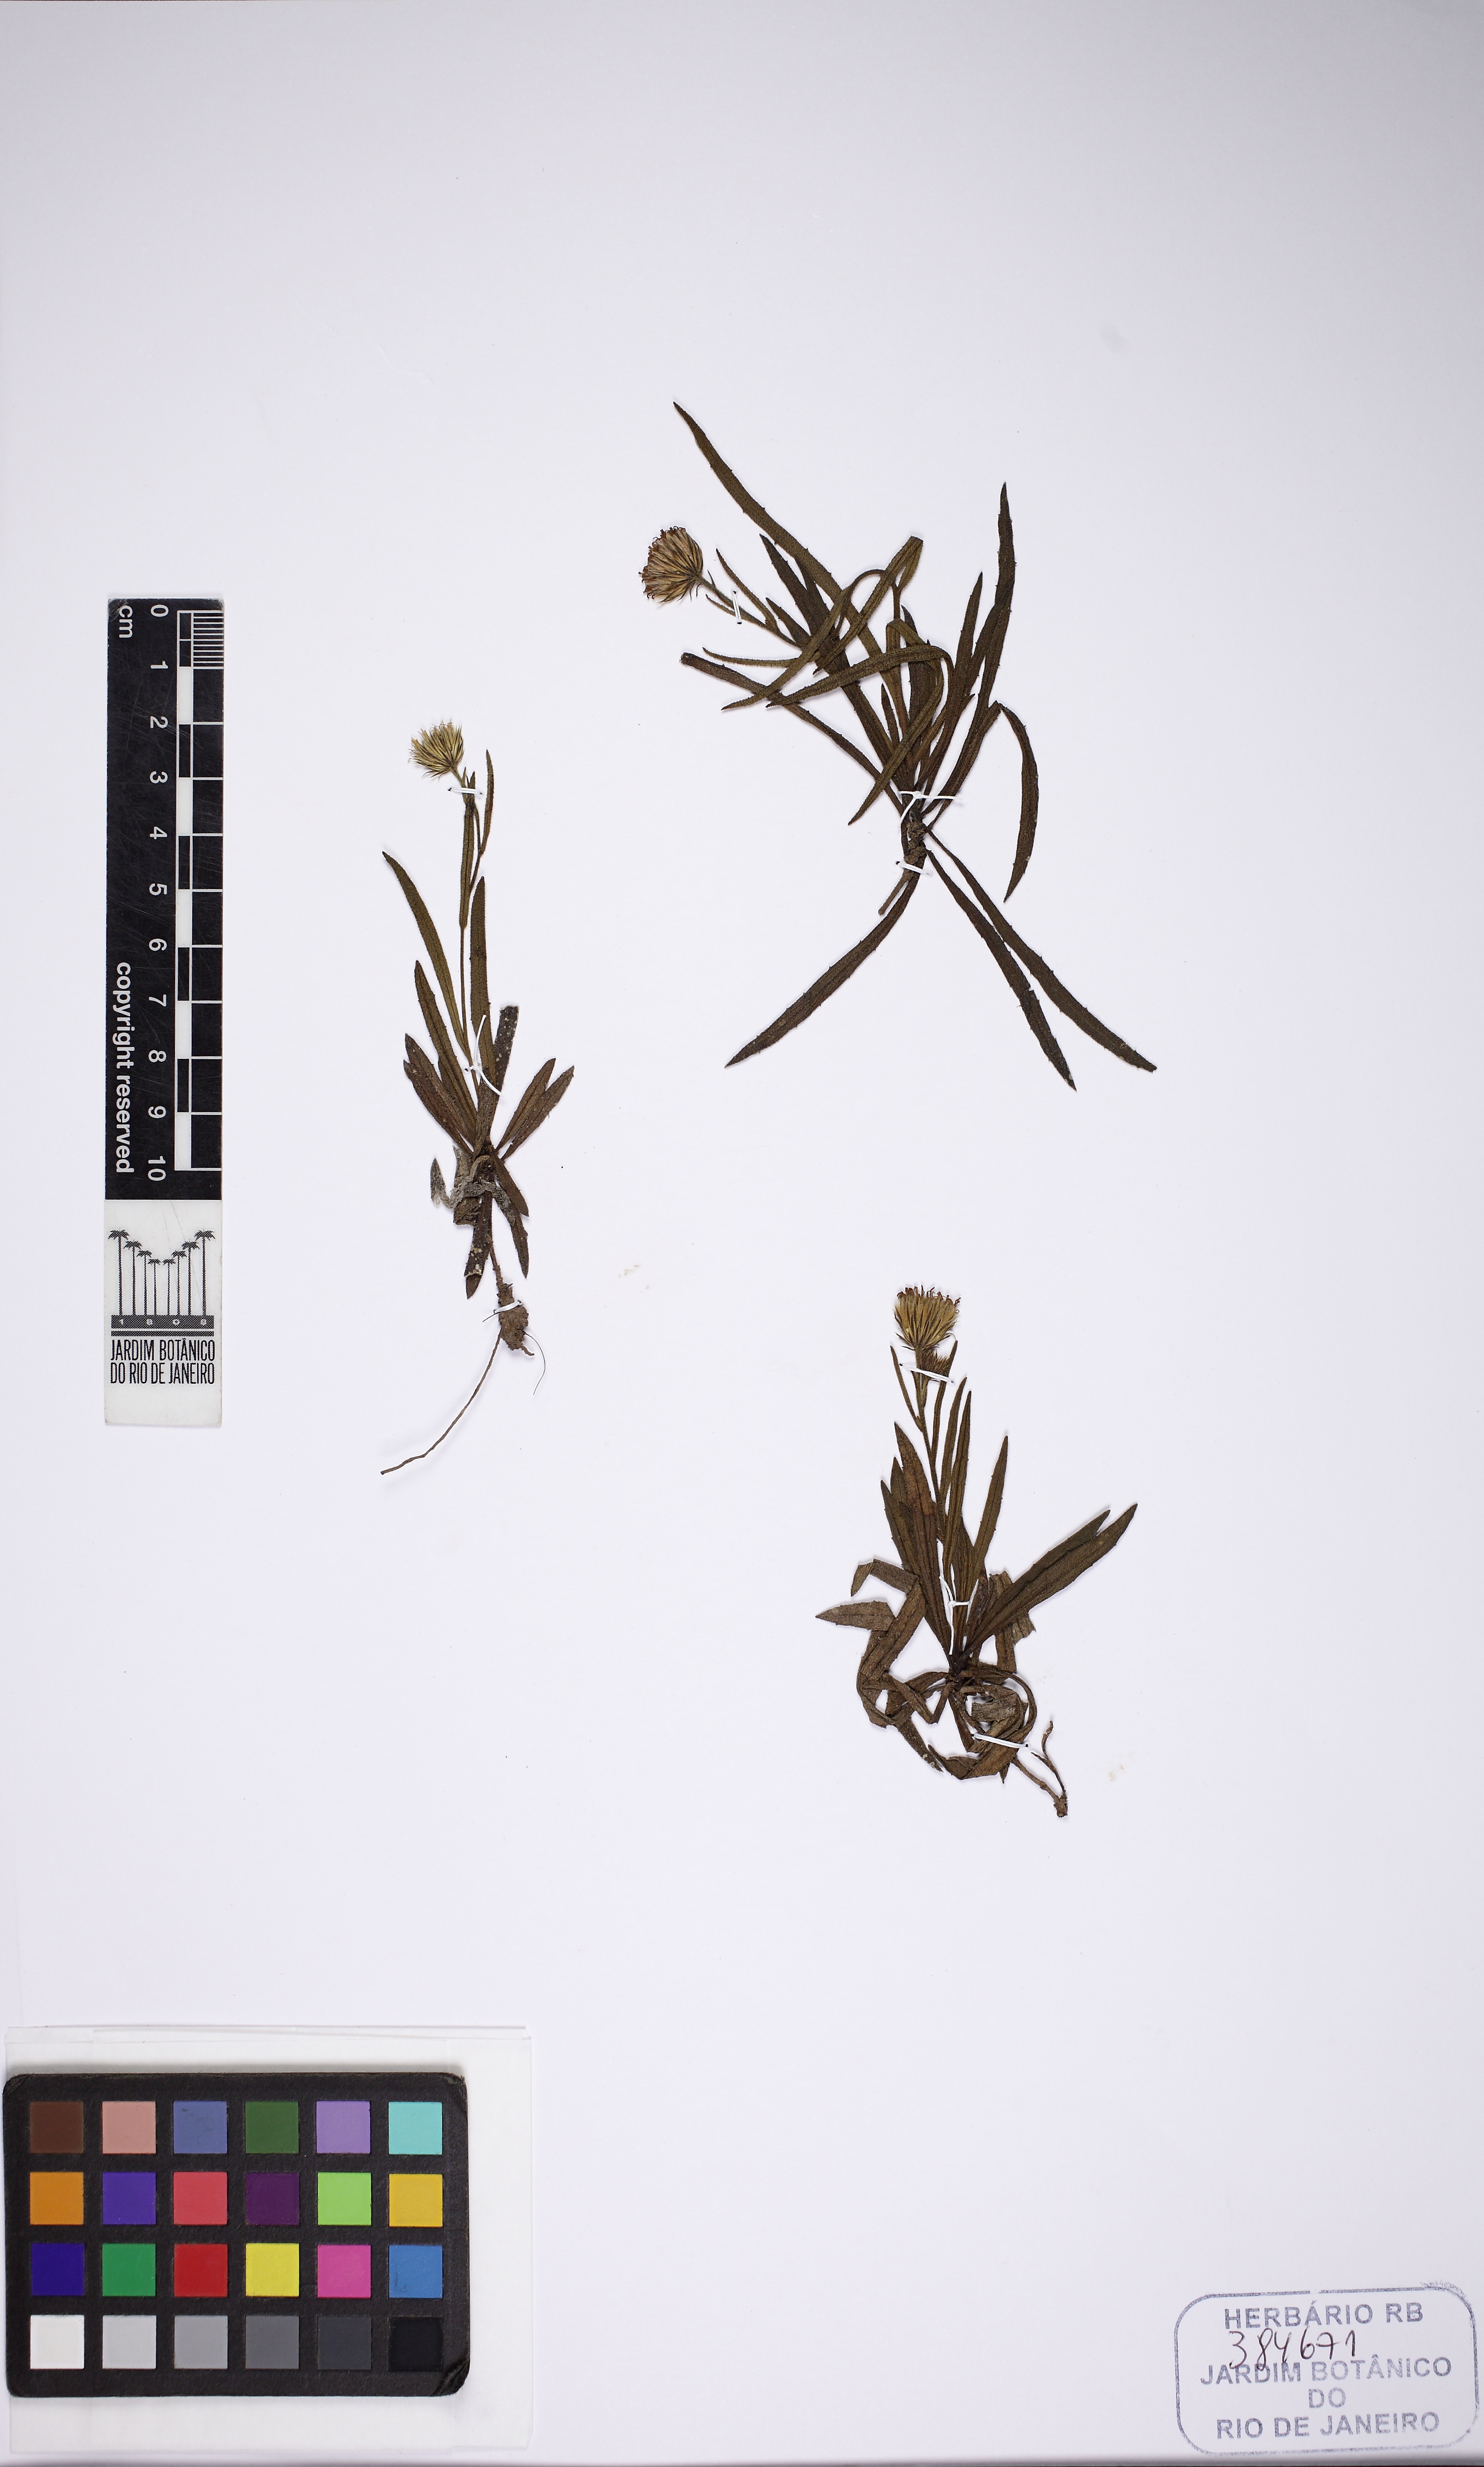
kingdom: Plantae
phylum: Tracheophyta
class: Magnoliopsida
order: Asterales
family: Asteraceae
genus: Lessingianthus
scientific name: Lessingianthus
